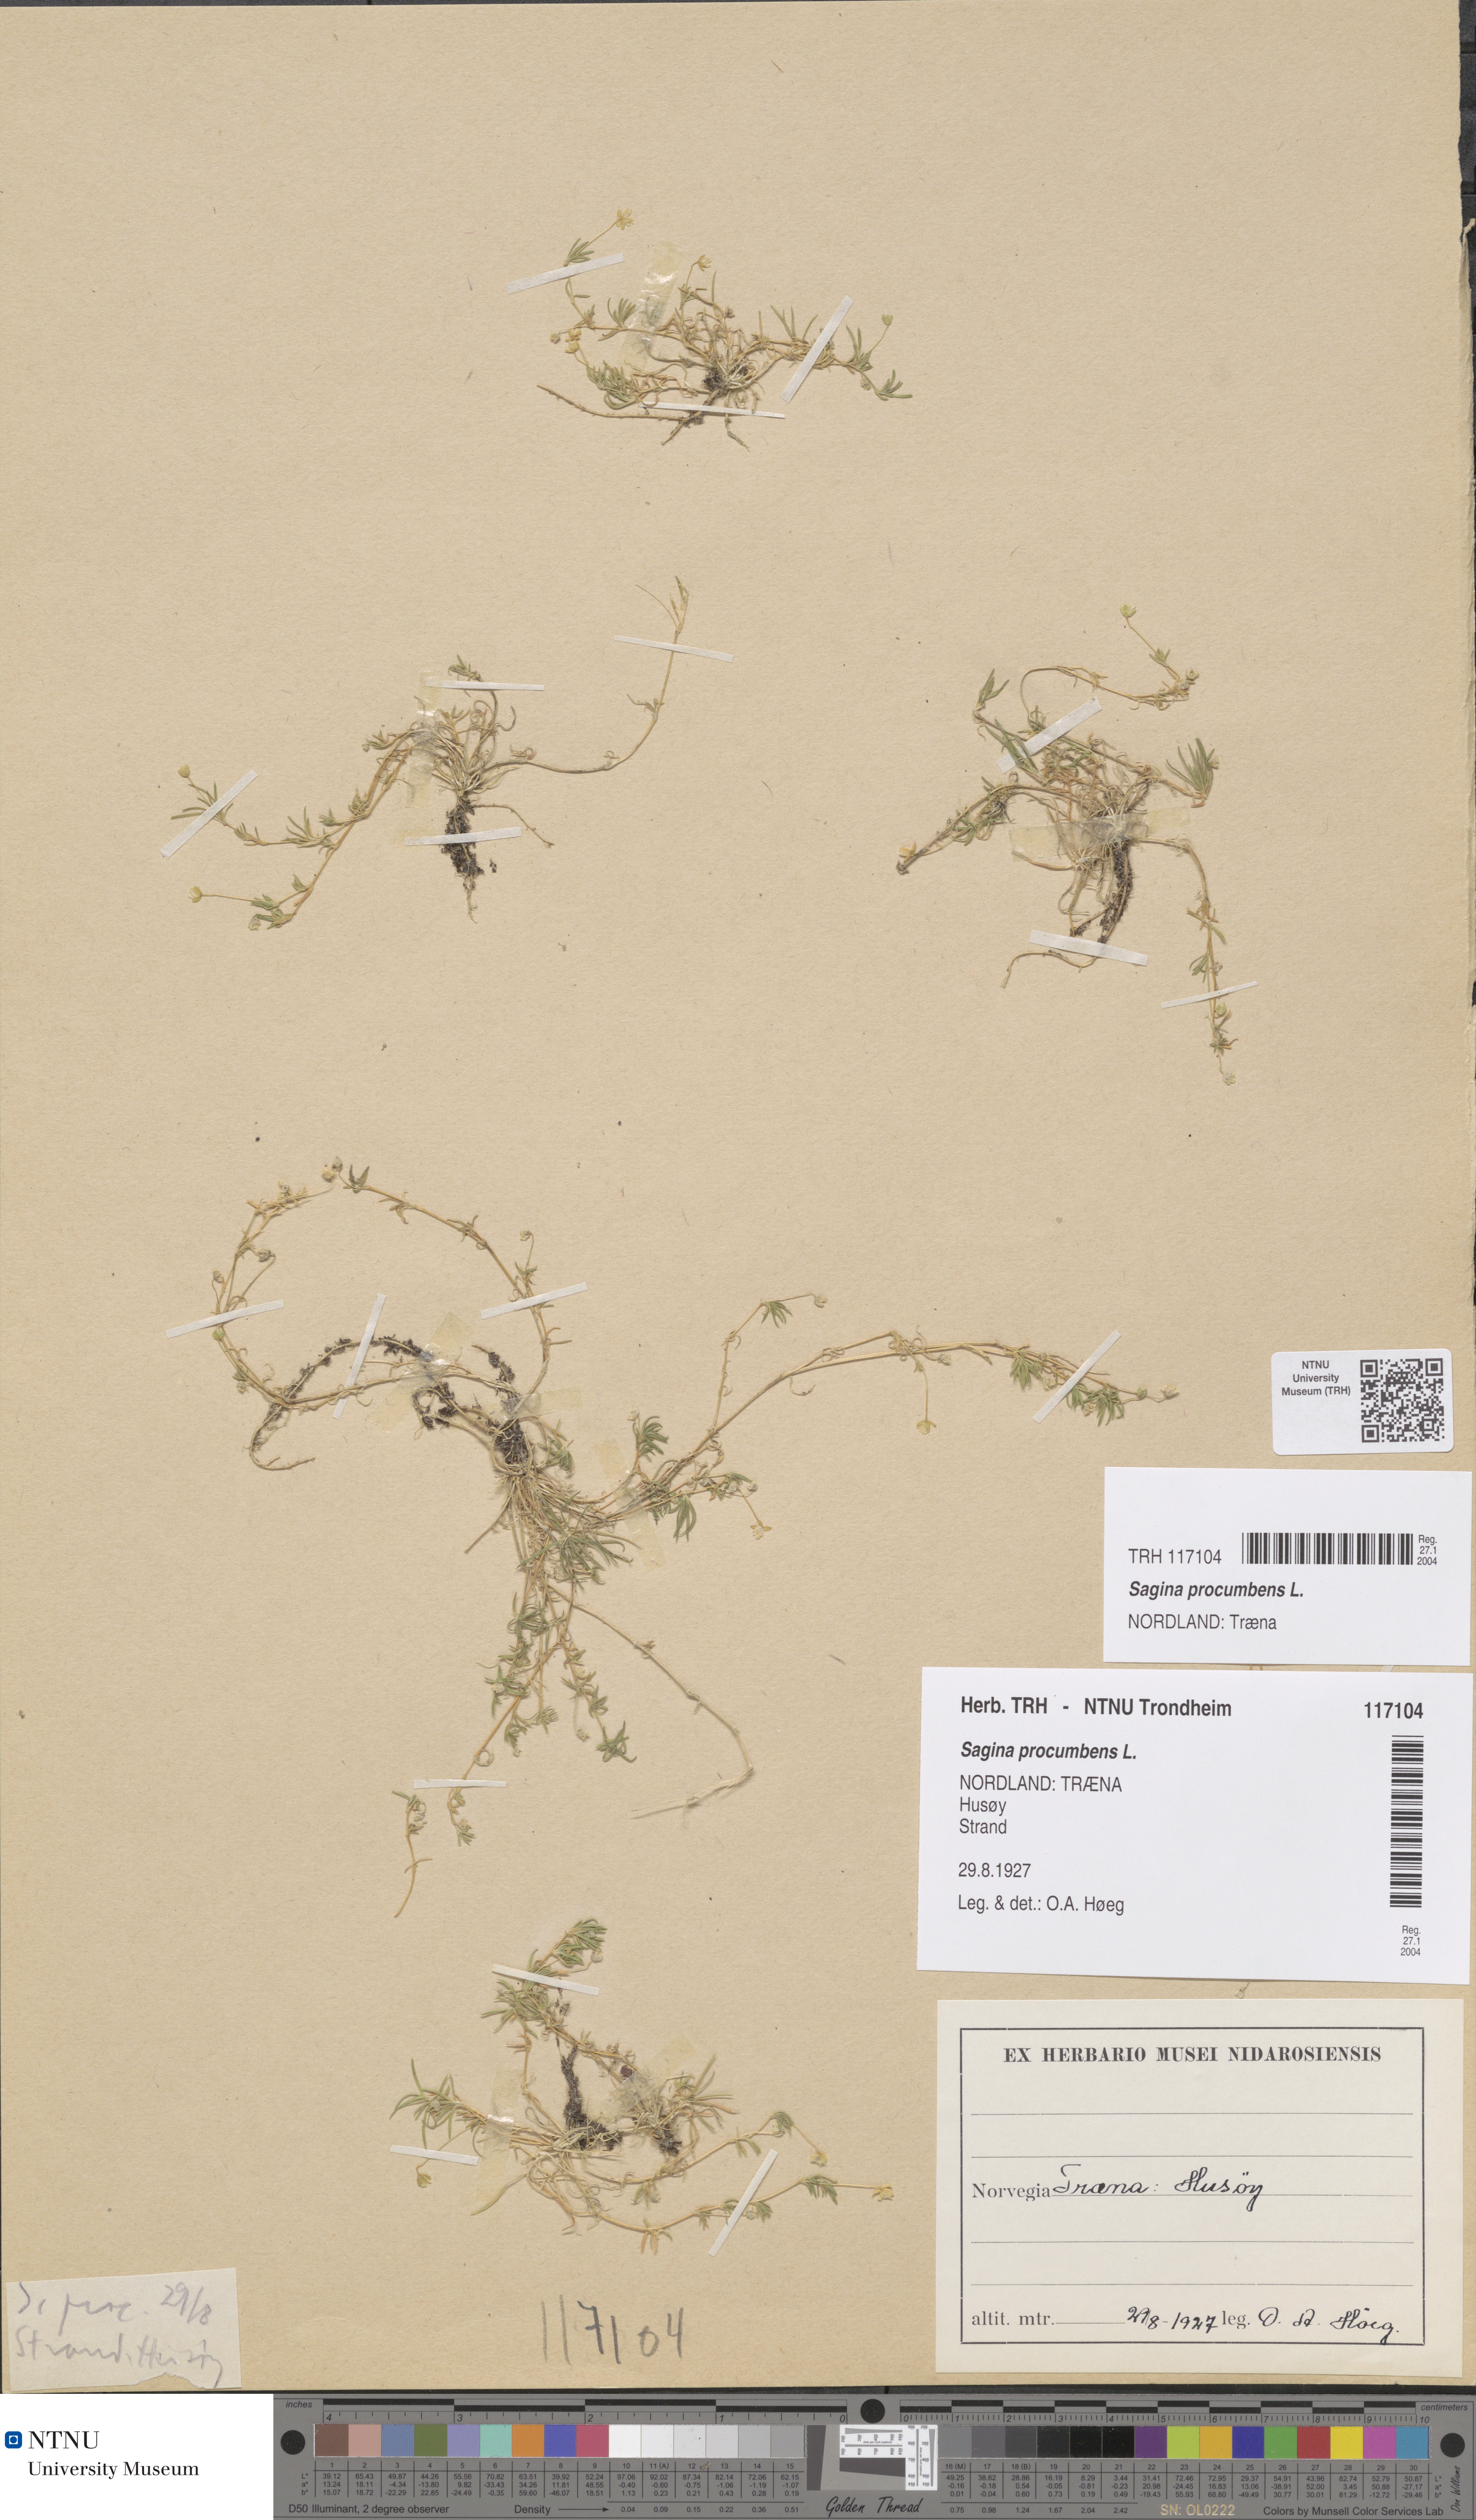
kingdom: Plantae
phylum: Tracheophyta
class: Magnoliopsida
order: Caryophyllales
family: Caryophyllaceae
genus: Sagina
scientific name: Sagina procumbens
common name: Procumbent pearlwort
